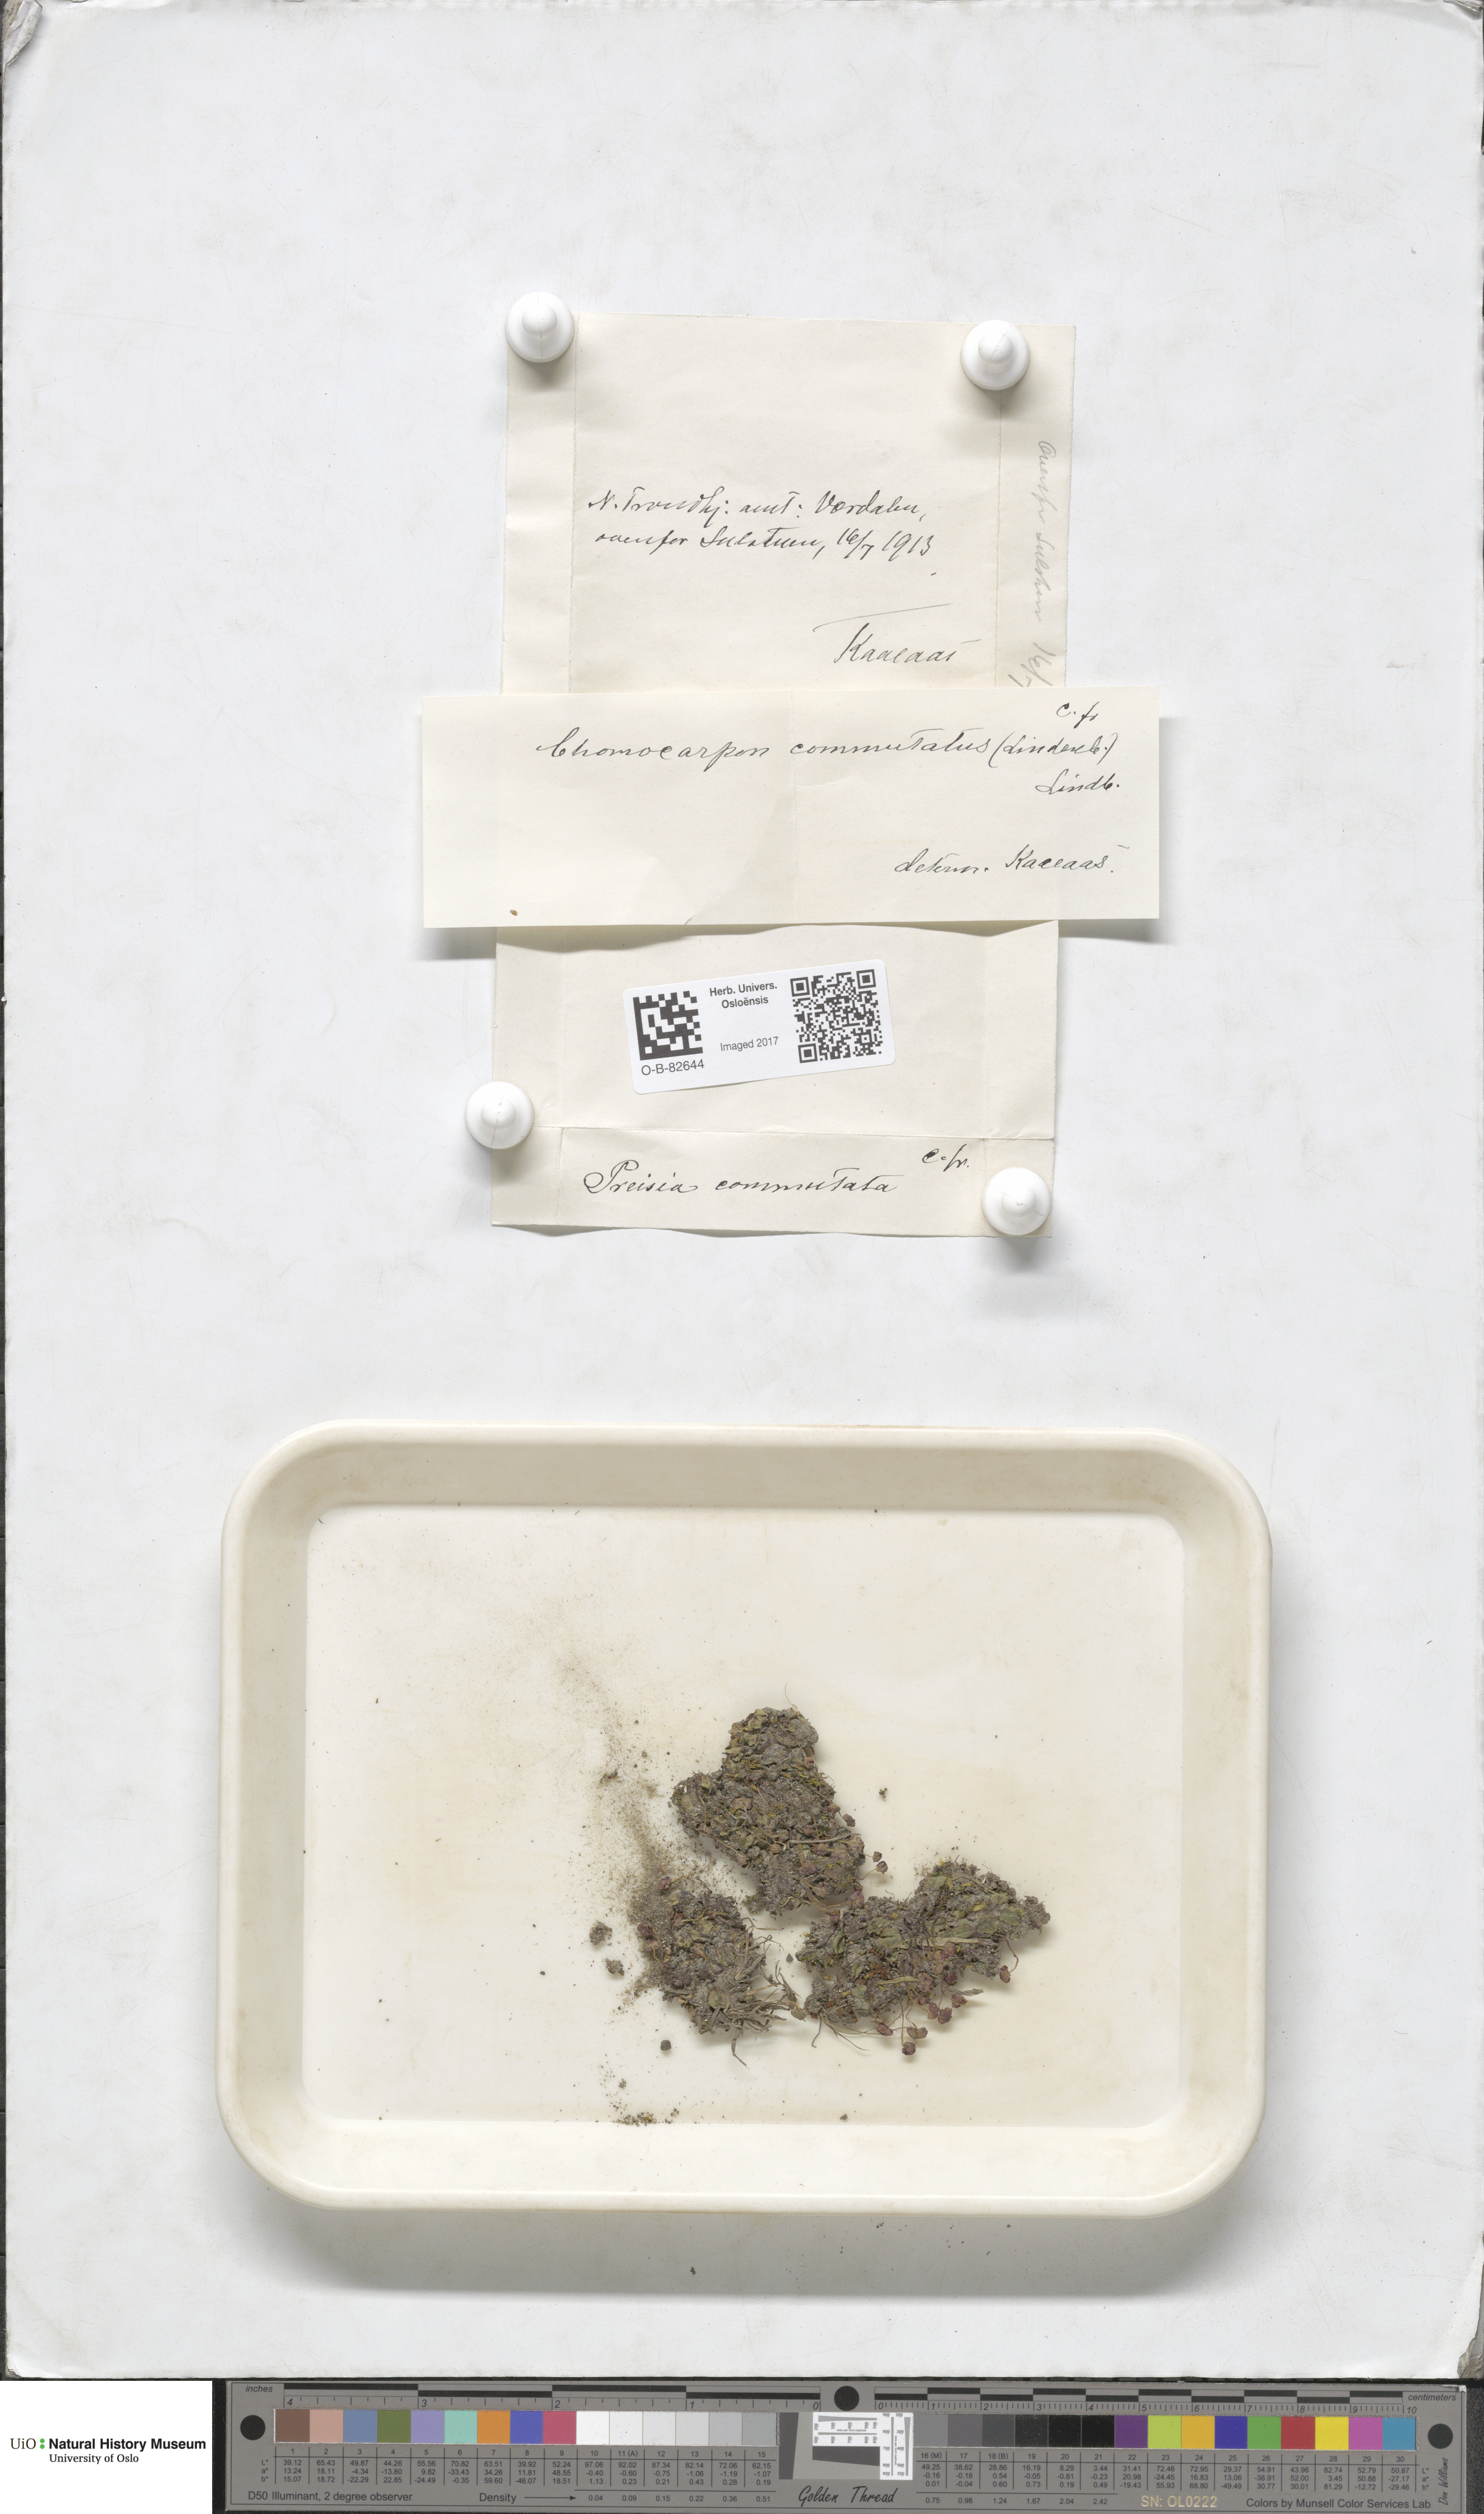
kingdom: Plantae
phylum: Marchantiophyta
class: Marchantiopsida
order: Marchantiales
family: Marchantiaceae
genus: Marchantia
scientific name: Marchantia quadrata
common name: Narrow mushroom-headed liverwort
